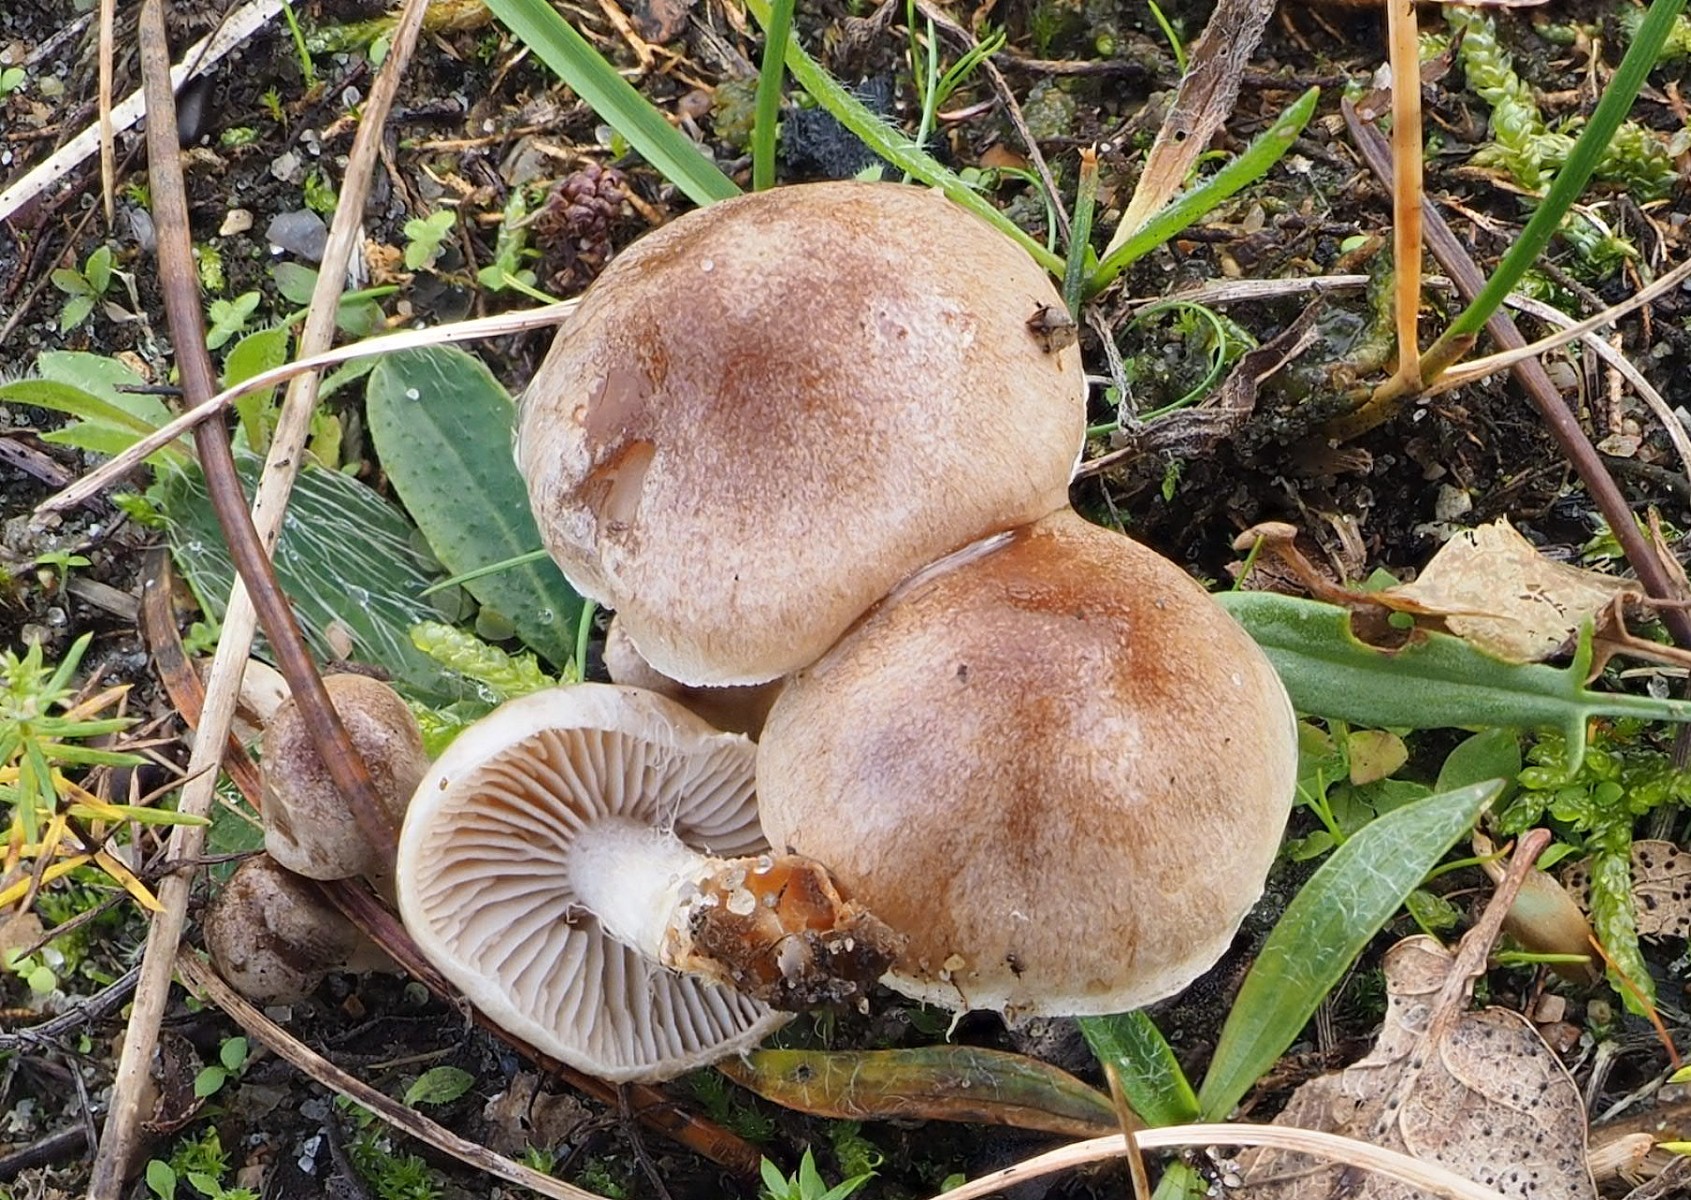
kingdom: Fungi
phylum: Basidiomycota
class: Agaricomycetes
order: Agaricales
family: Hymenogastraceae
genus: Hebeloma
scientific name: Hebeloma
